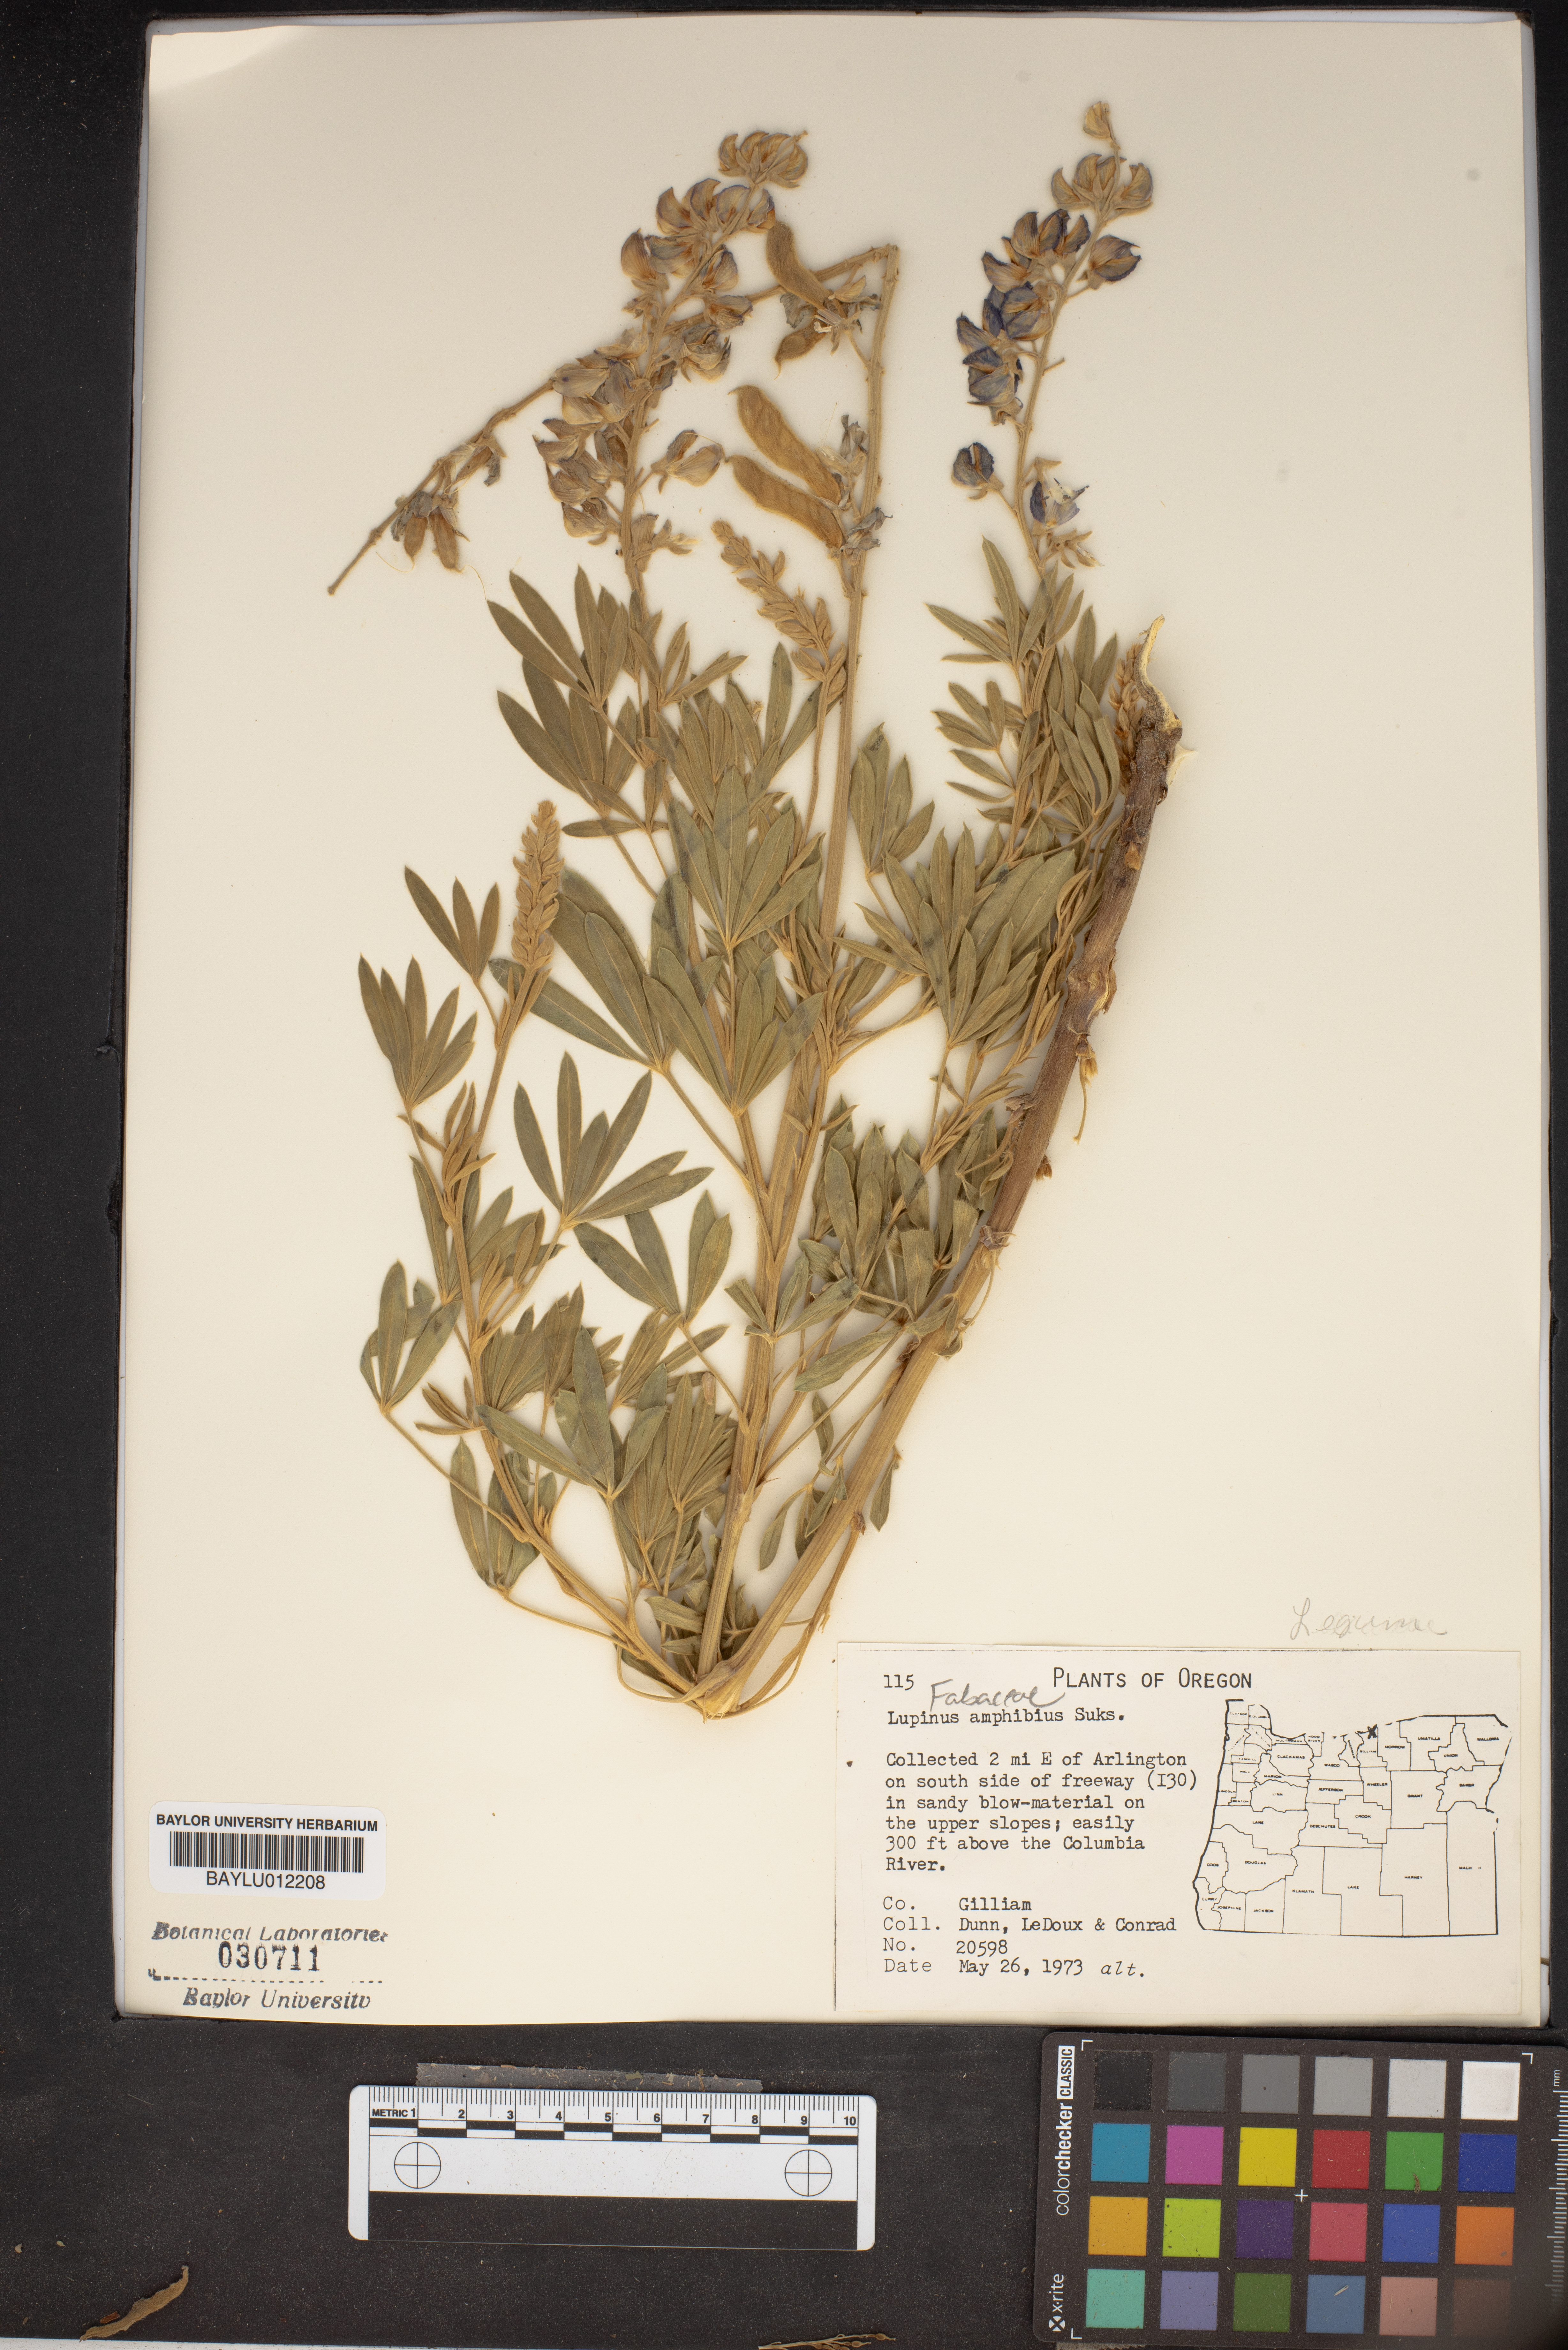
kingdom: Plantae
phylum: Tracheophyta
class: Magnoliopsida
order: Fabales
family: Fabaceae
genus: Lupinus
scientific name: Lupinus amphibius
